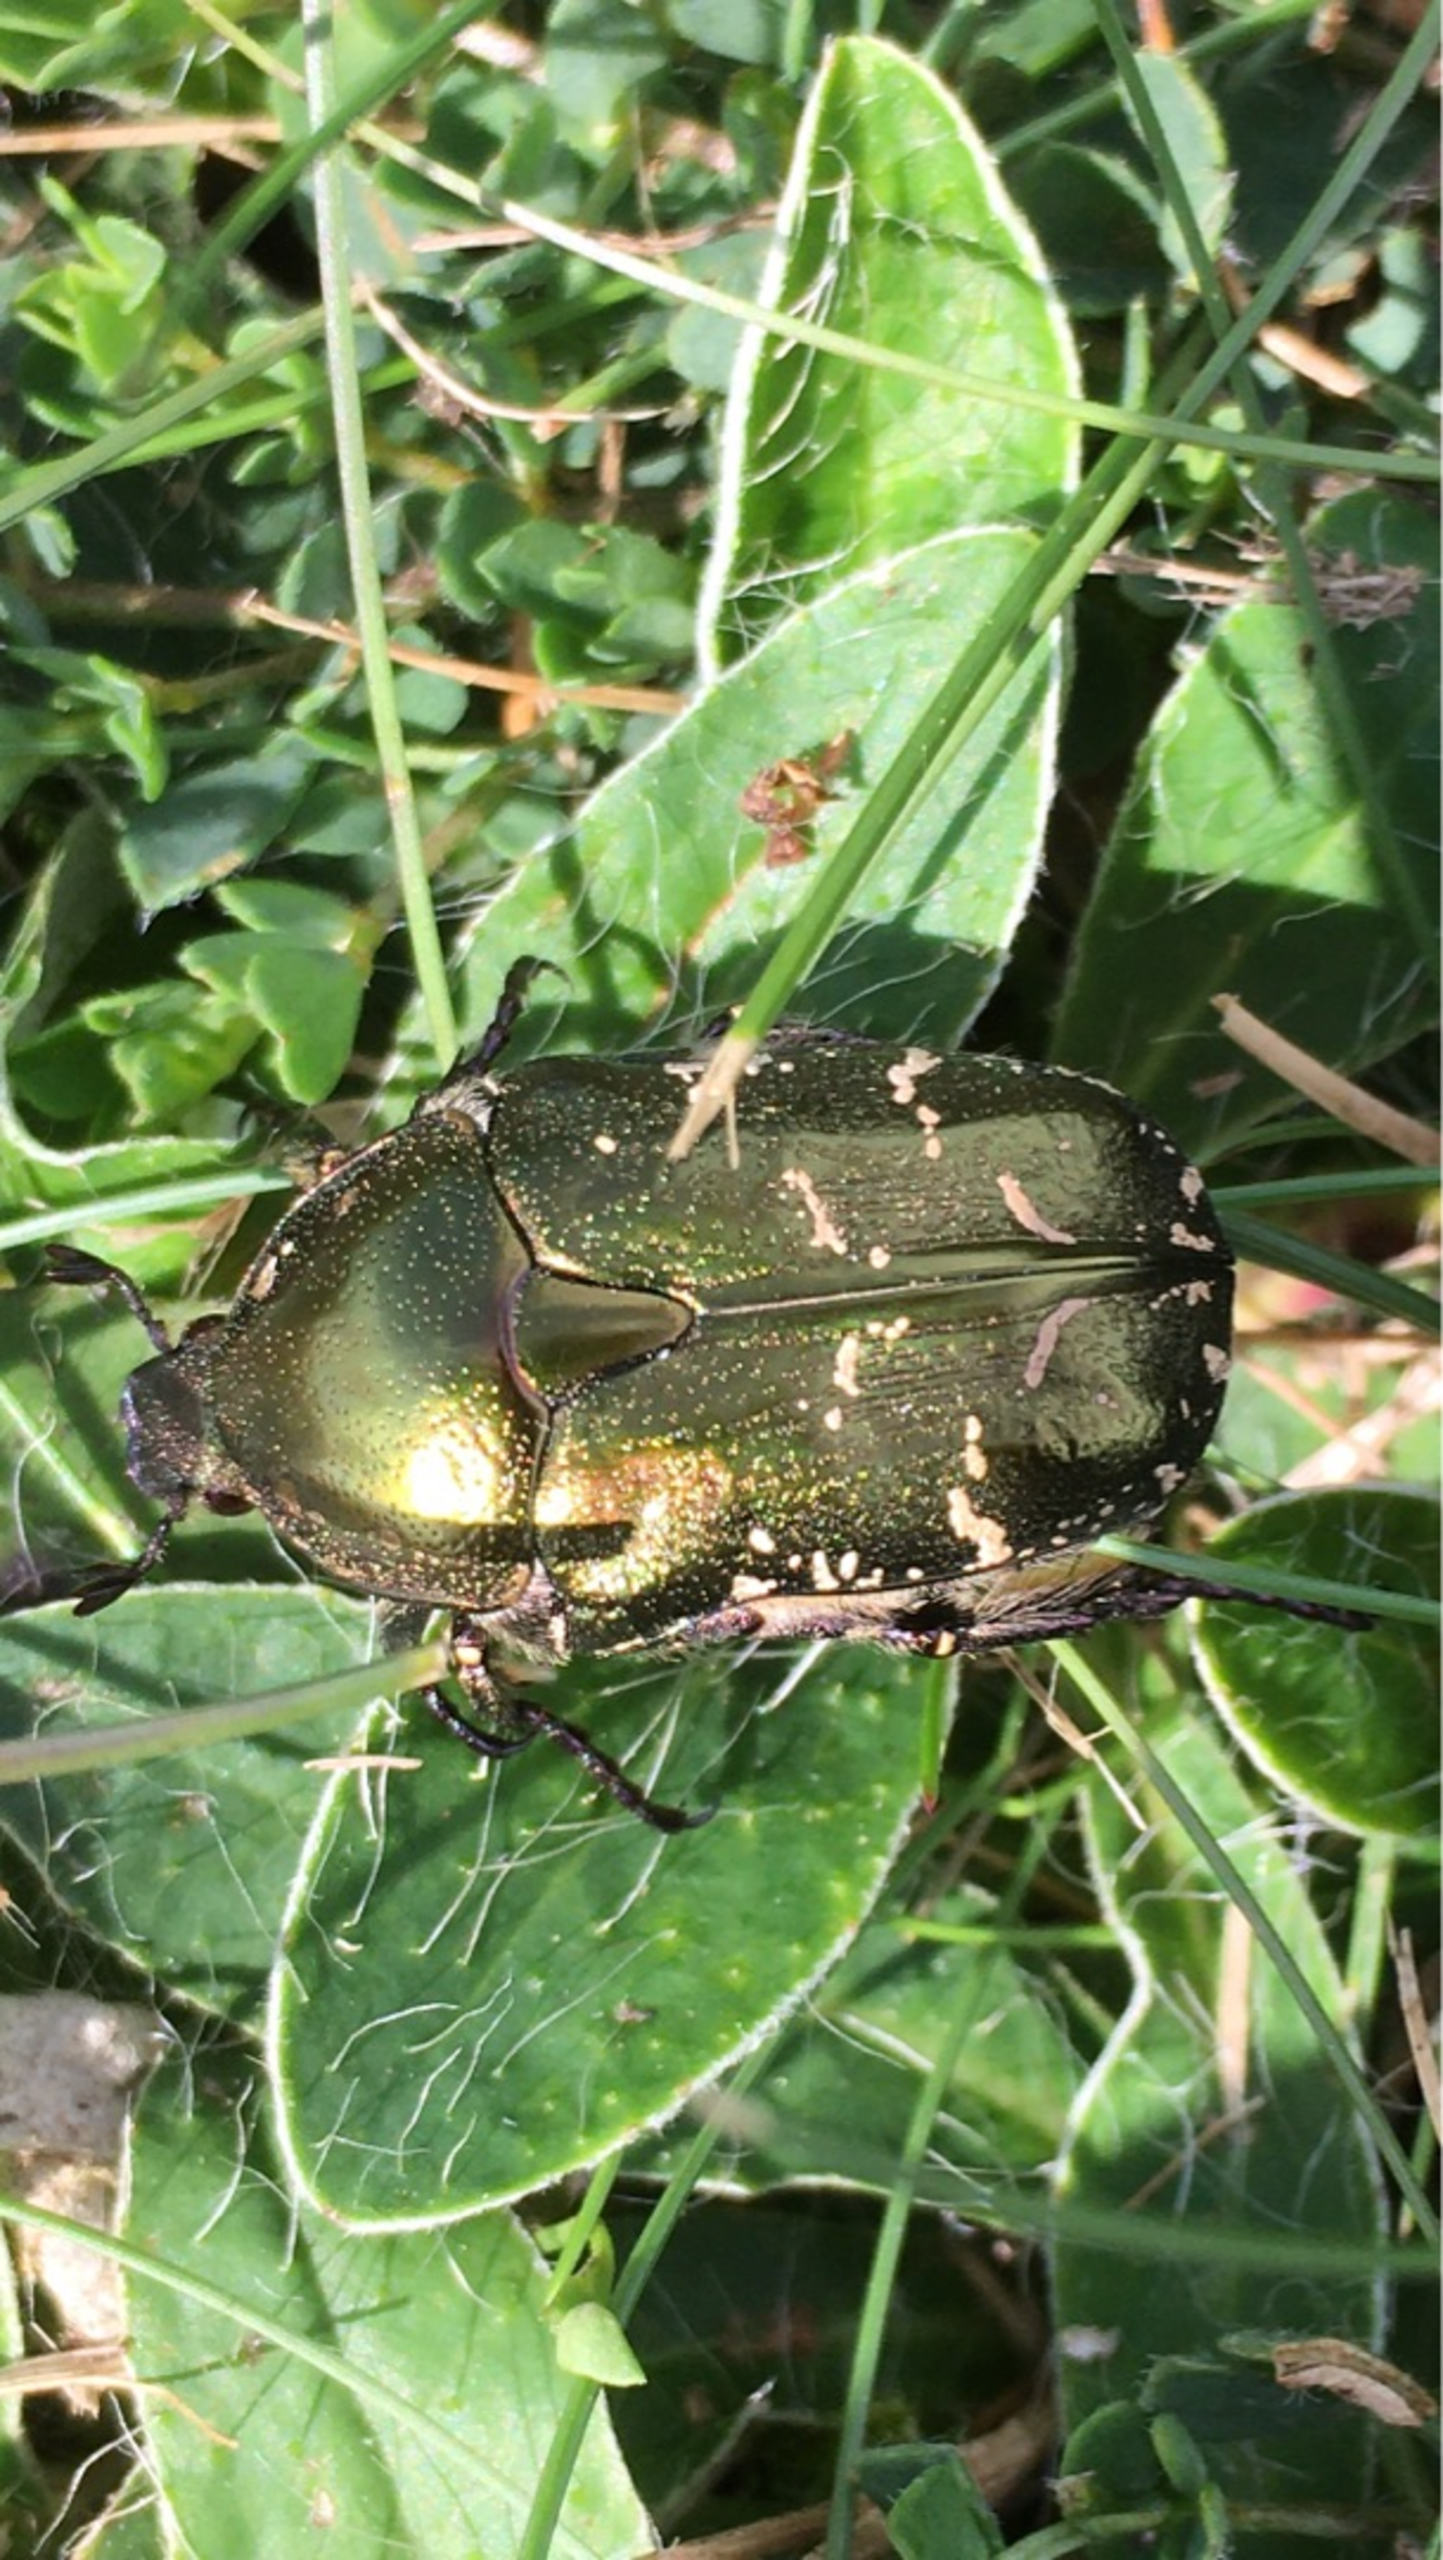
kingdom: Animalia
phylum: Arthropoda
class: Insecta
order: Coleoptera
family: Scarabaeidae
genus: Protaetia
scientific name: Protaetia cuprea
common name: Kobberguldbasse
